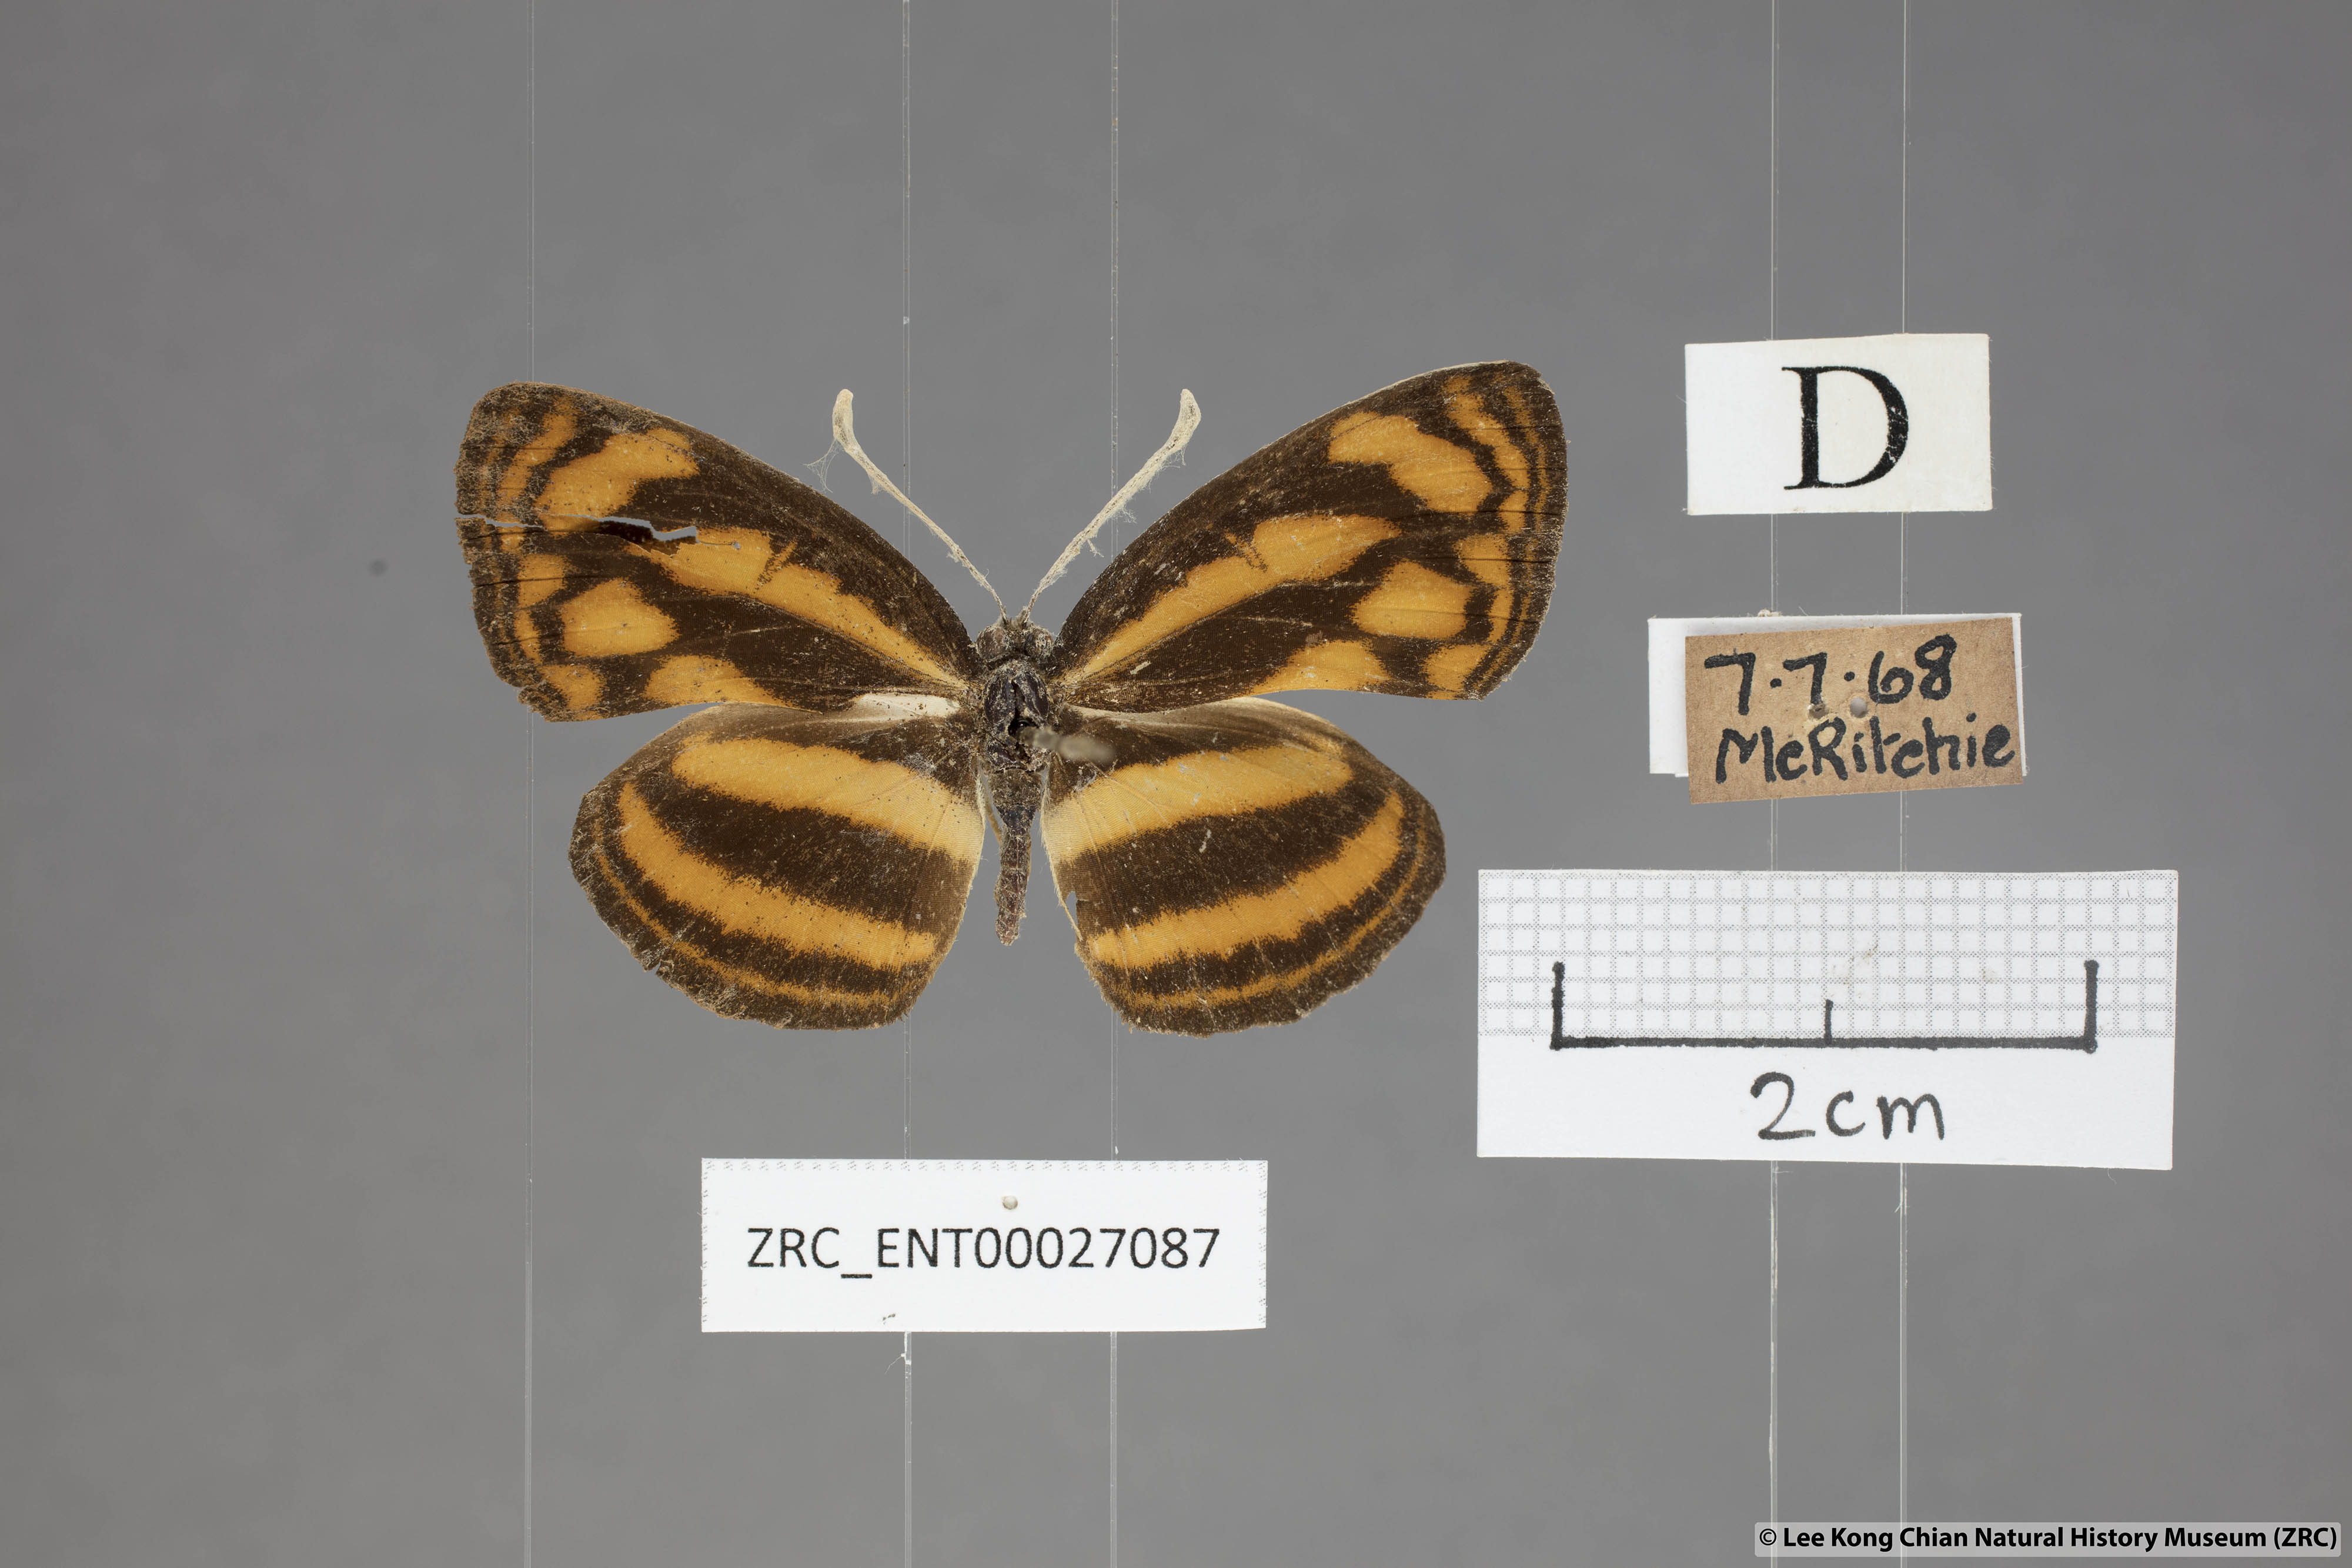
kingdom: Animalia
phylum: Arthropoda
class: Insecta
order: Lepidoptera
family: Nymphalidae
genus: Lasippa
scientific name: Lasippa heliodore
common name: Burmese lascar
